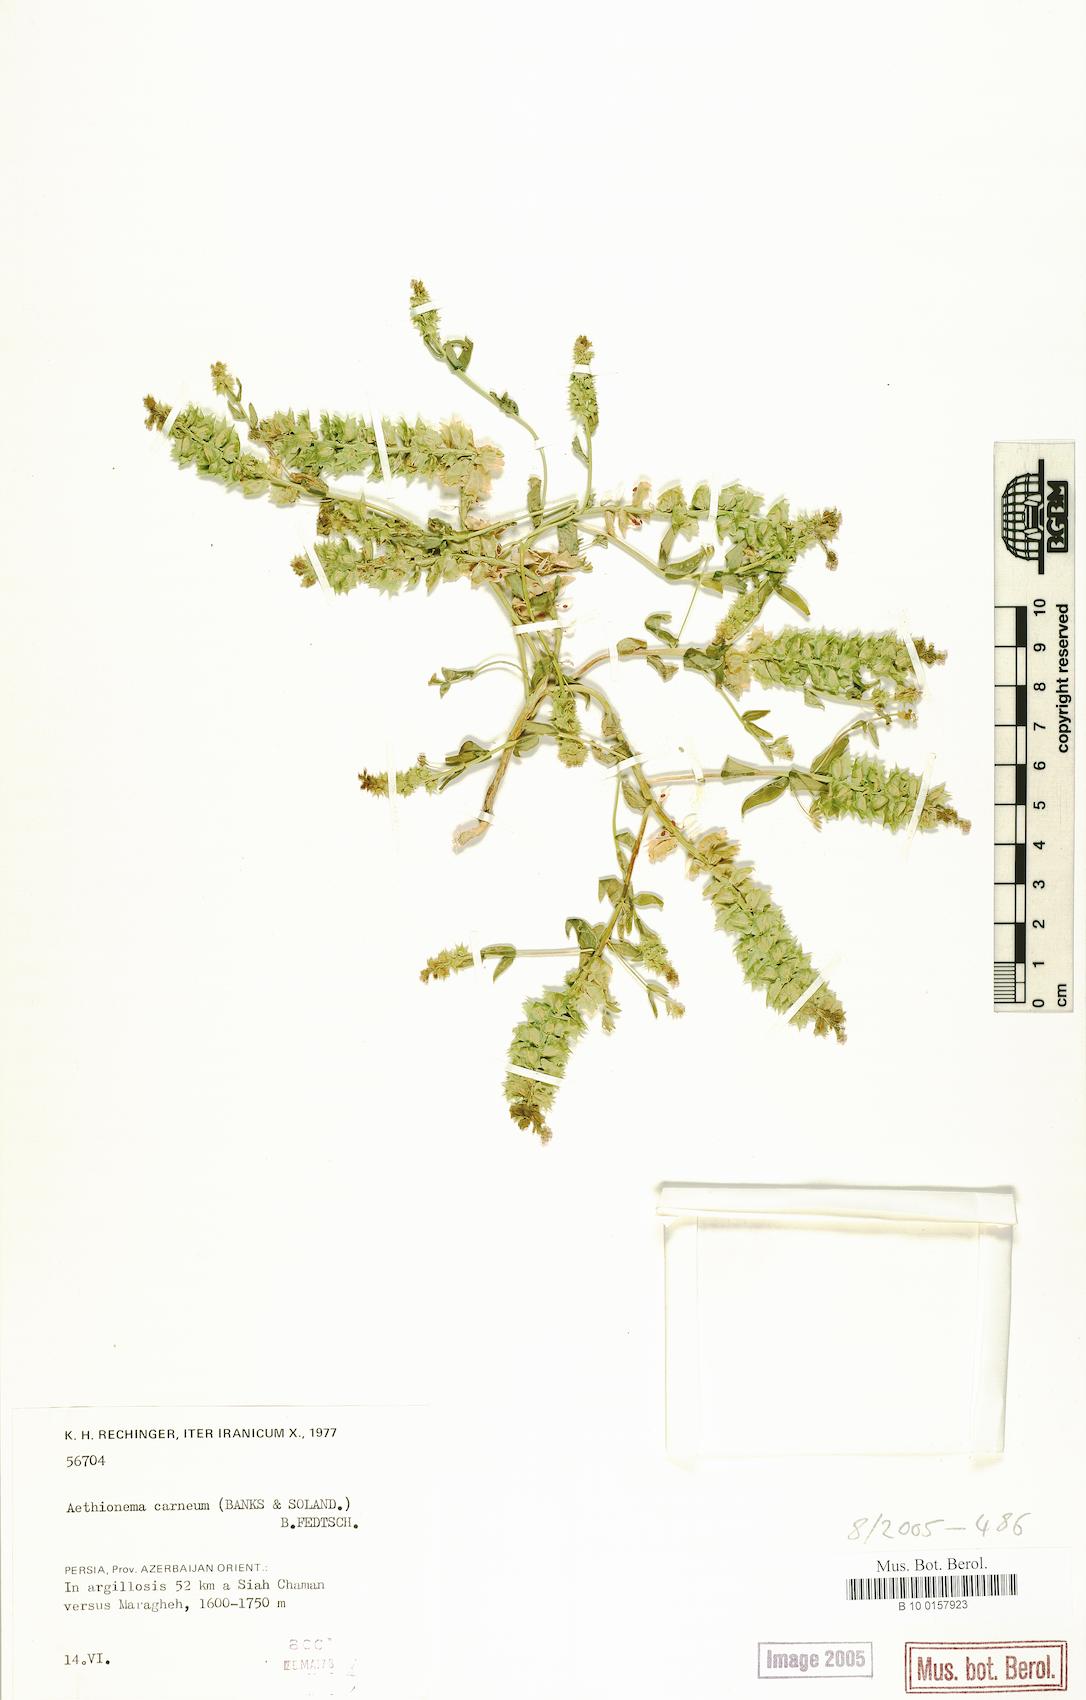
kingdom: Plantae
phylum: Tracheophyta
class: Magnoliopsida
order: Brassicales
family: Brassicaceae
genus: Aethionema
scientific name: Aethionema carneum
